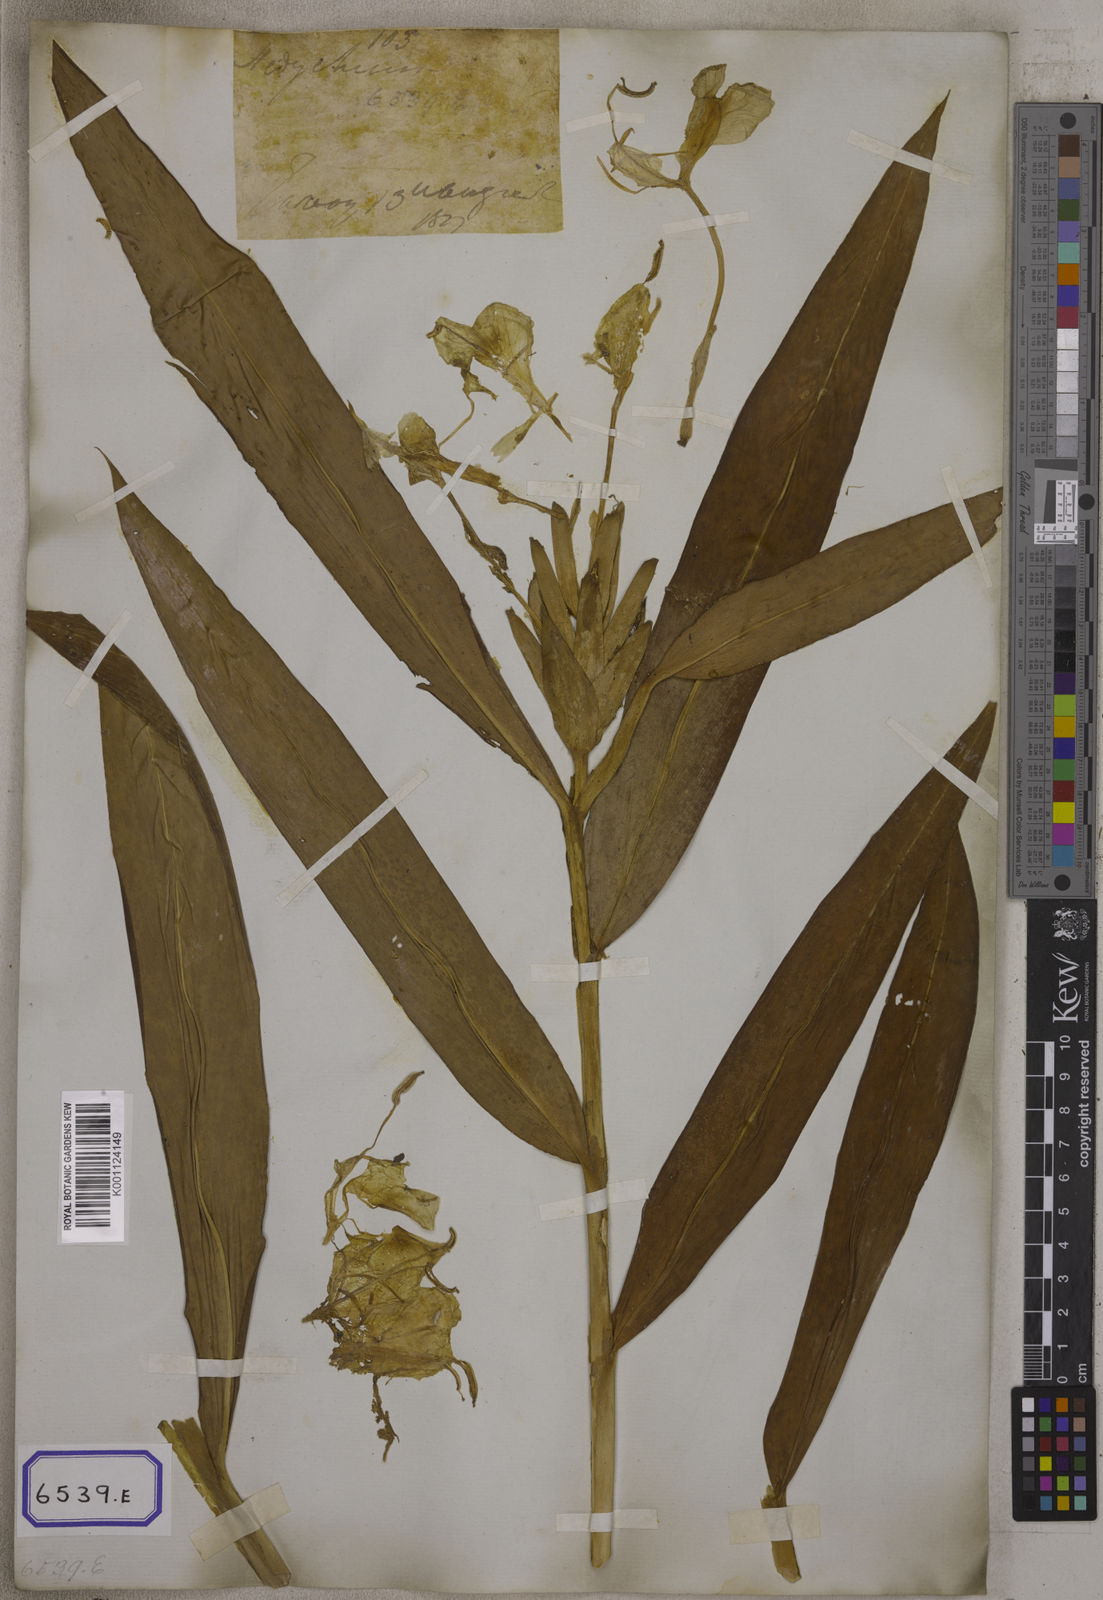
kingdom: Plantae
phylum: Tracheophyta
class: Liliopsida
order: Zingiberales
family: Zingiberaceae
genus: Hedychium
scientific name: Hedychium coronarium
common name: White garland-lily
